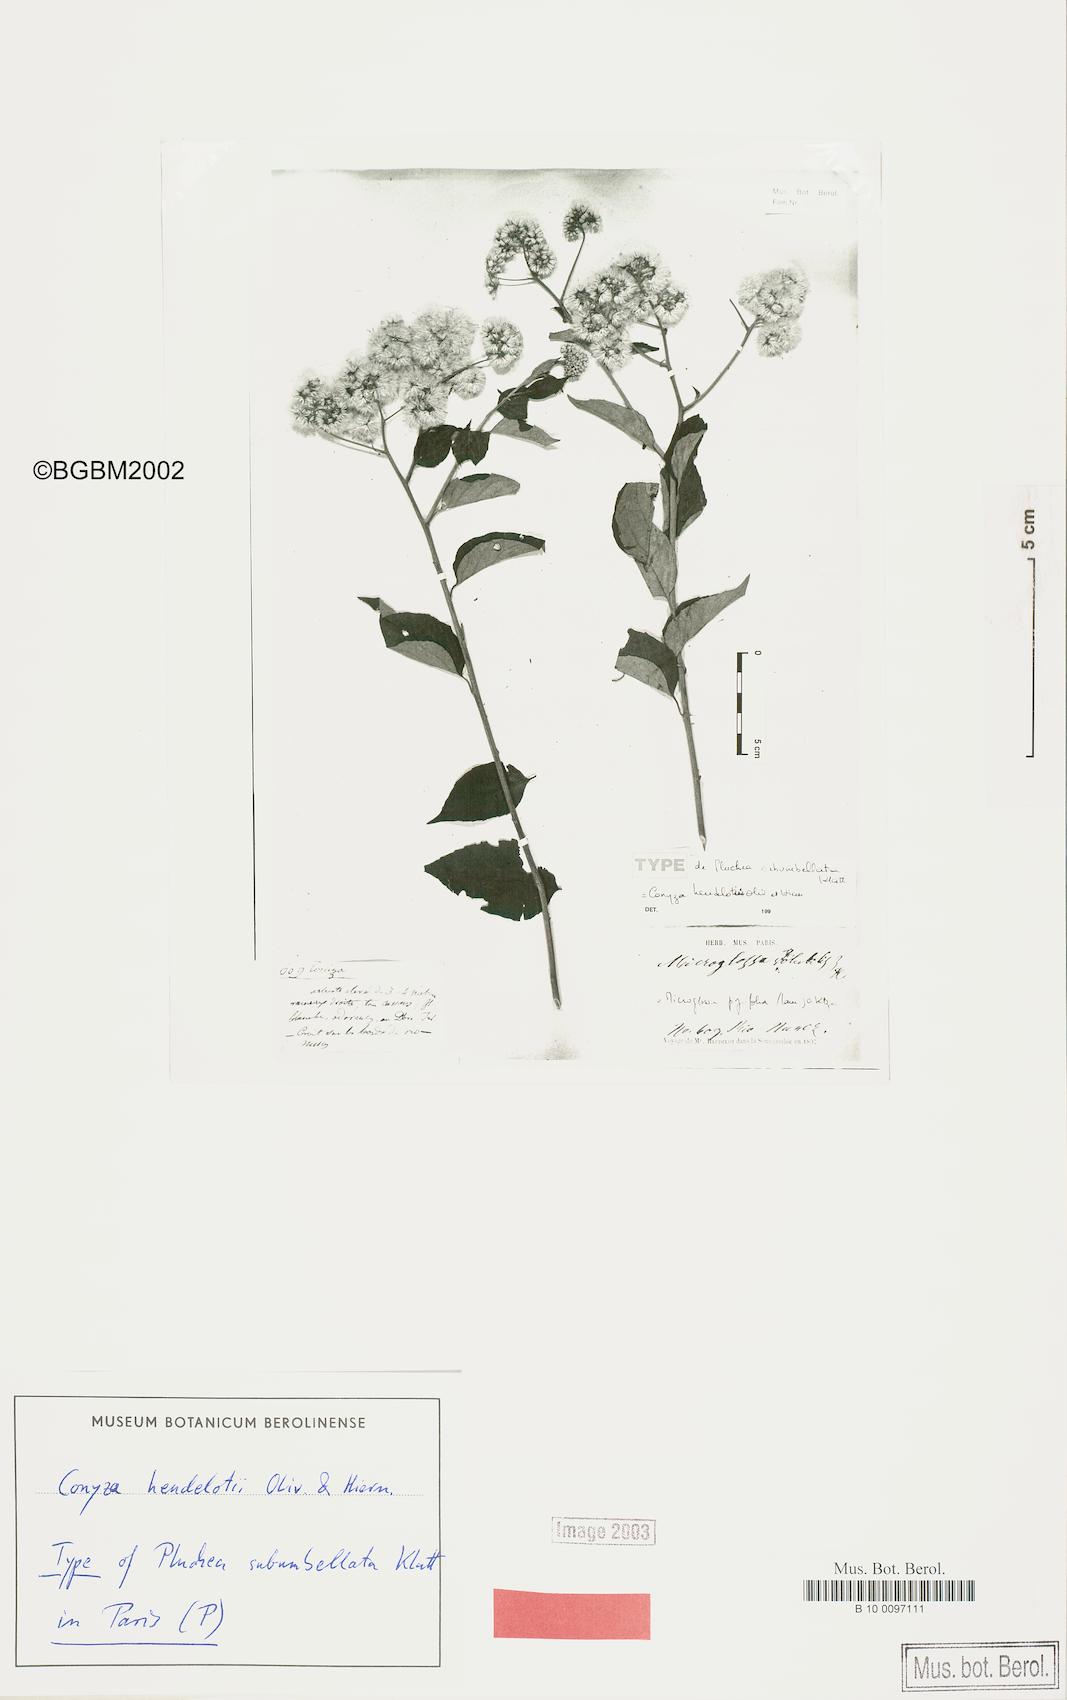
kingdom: Plantae
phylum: Tracheophyta
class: Magnoliopsida
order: Asterales
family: Asteraceae
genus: Microglossa
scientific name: Microglossa pyrifolia
